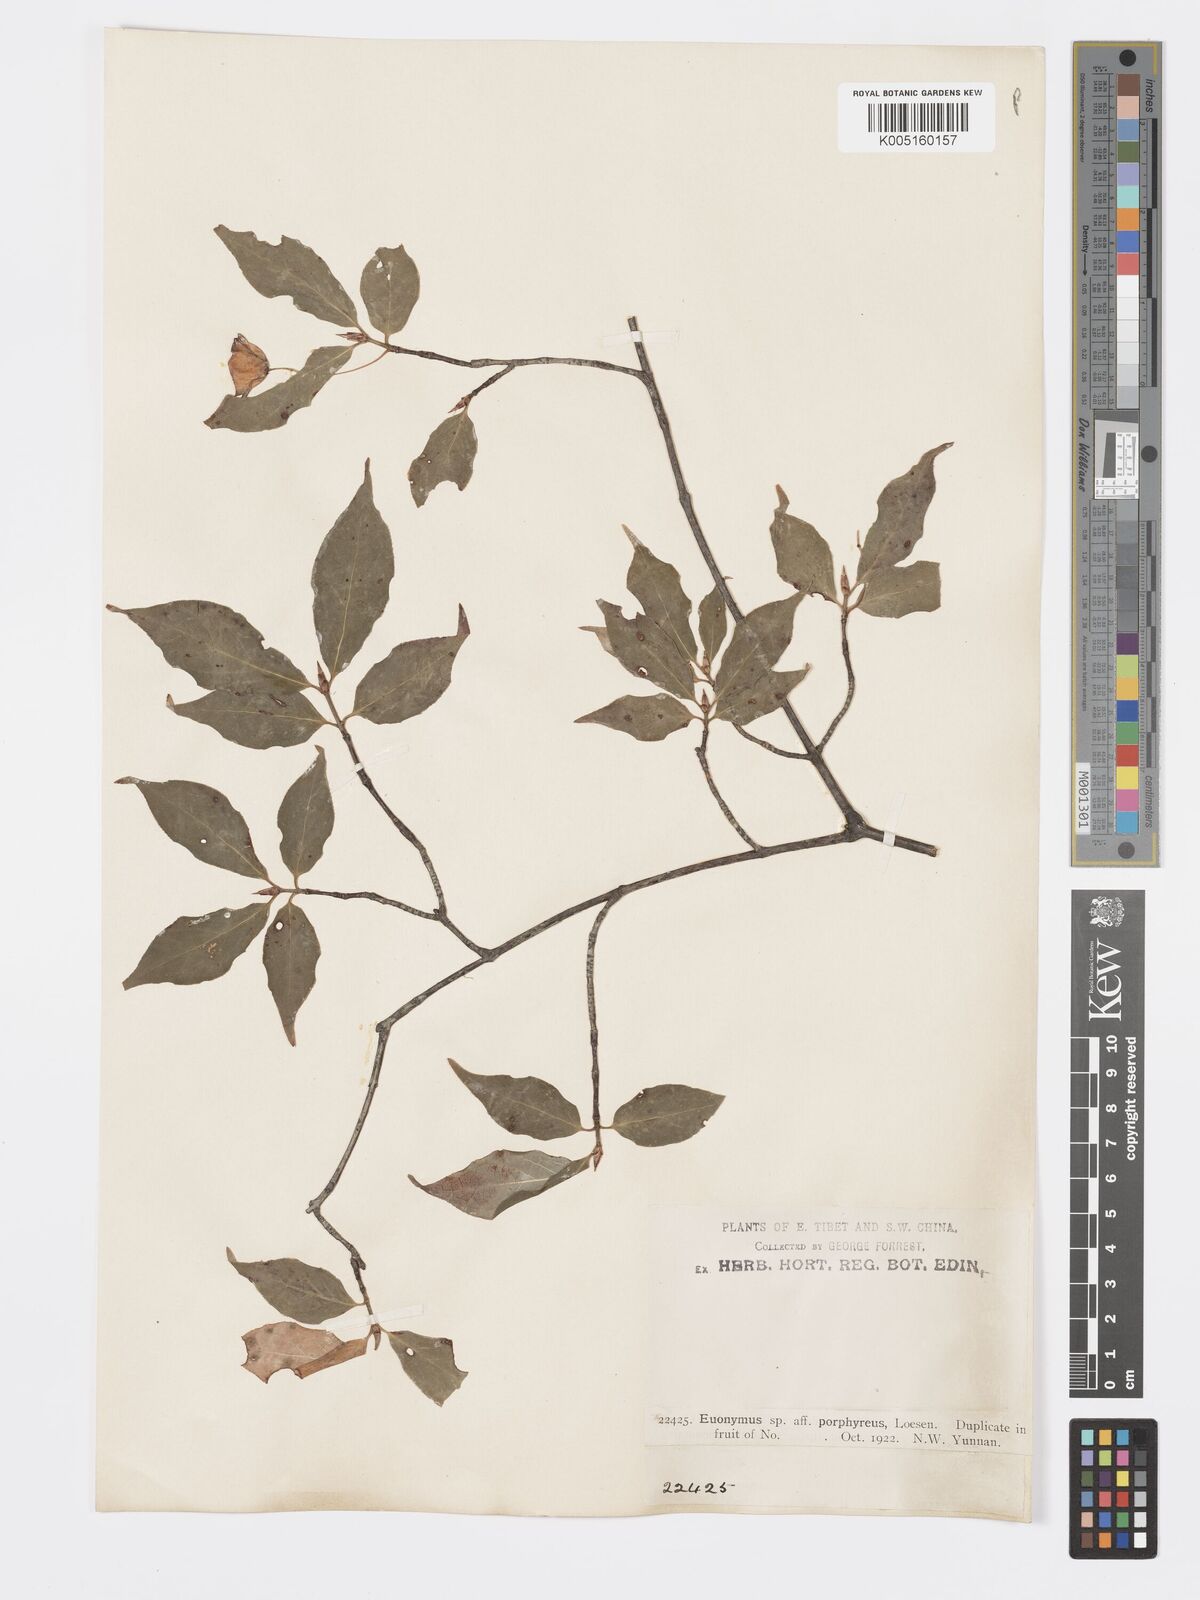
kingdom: Plantae
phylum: Tracheophyta
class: Magnoliopsida
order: Celastrales
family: Celastraceae
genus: Euonymus
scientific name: Euonymus frigidus
